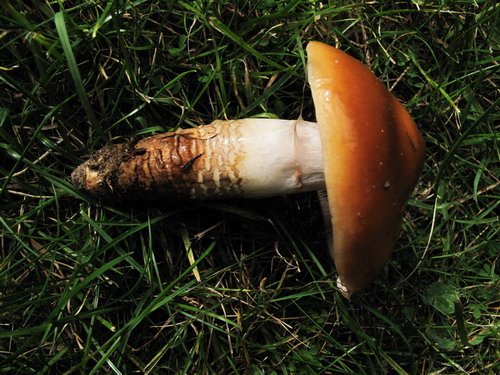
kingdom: Fungi
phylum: Basidiomycota
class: Agaricomycetes
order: Agaricales
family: Cortinariaceae
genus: Cortinarius
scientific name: Cortinarius fennoscandicus
